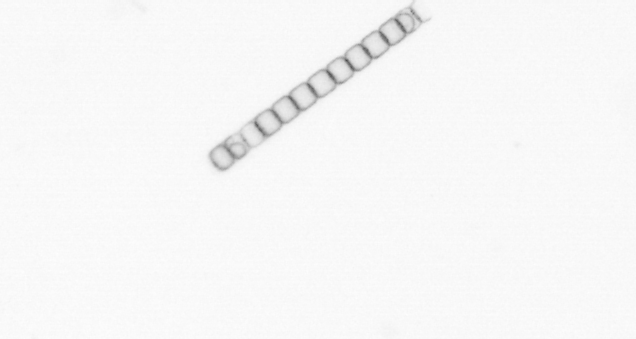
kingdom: Chromista
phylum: Ochrophyta
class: Bacillariophyceae
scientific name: Bacillariophyceae
